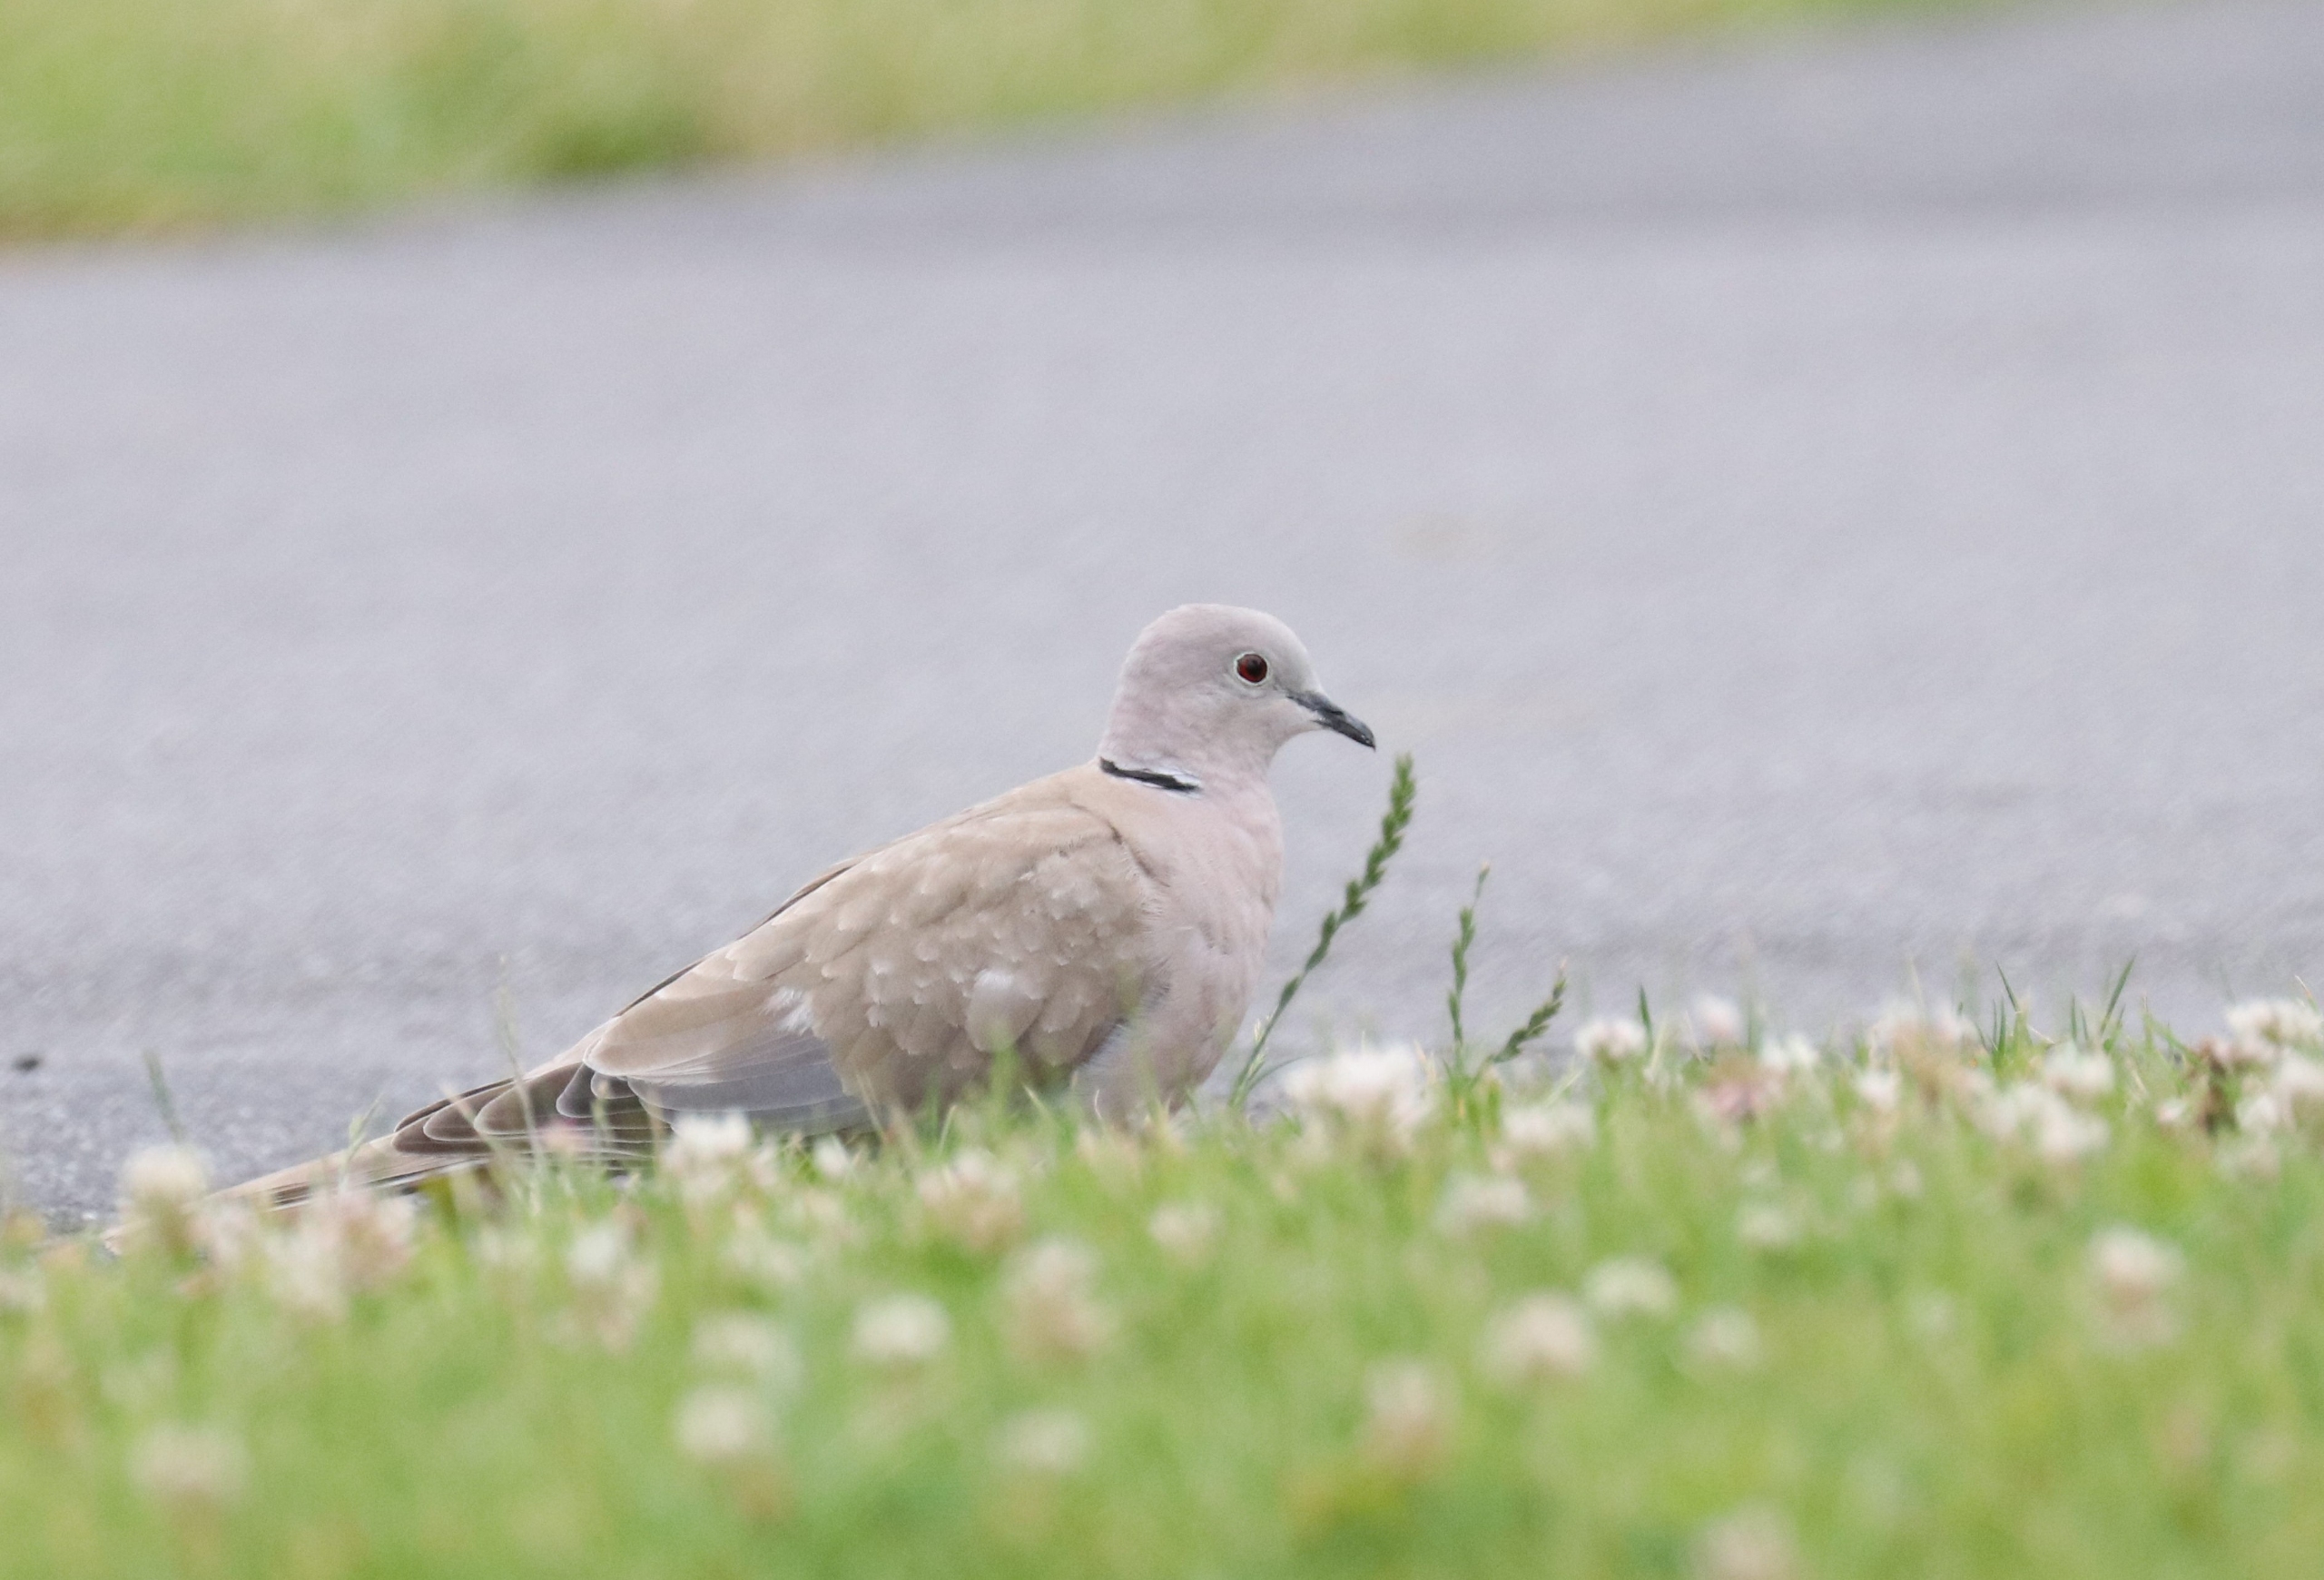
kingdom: Animalia
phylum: Chordata
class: Aves
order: Columbiformes
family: Columbidae
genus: Streptopelia
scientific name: Streptopelia decaocto
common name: Tyrkerdue
